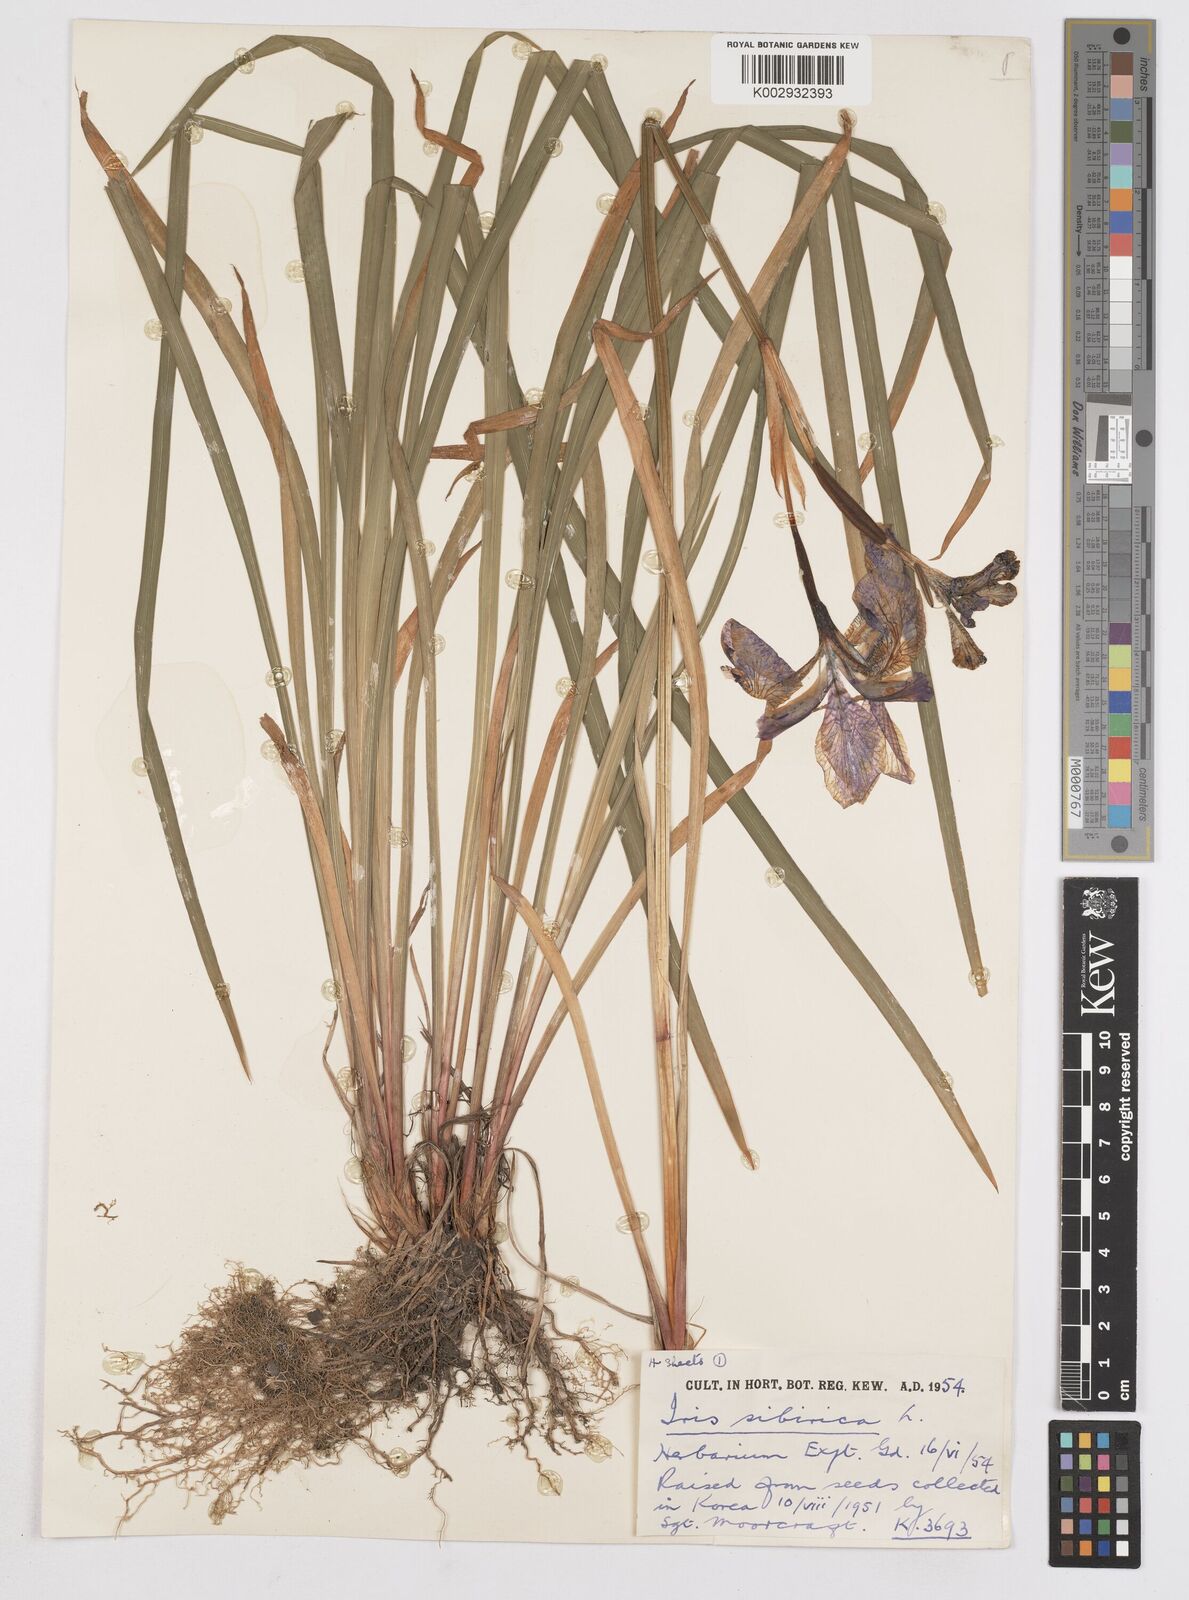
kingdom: Plantae
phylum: Tracheophyta
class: Liliopsida
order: Asparagales
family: Iridaceae
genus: Iris
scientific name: Iris sibirica
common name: Siberian iris
